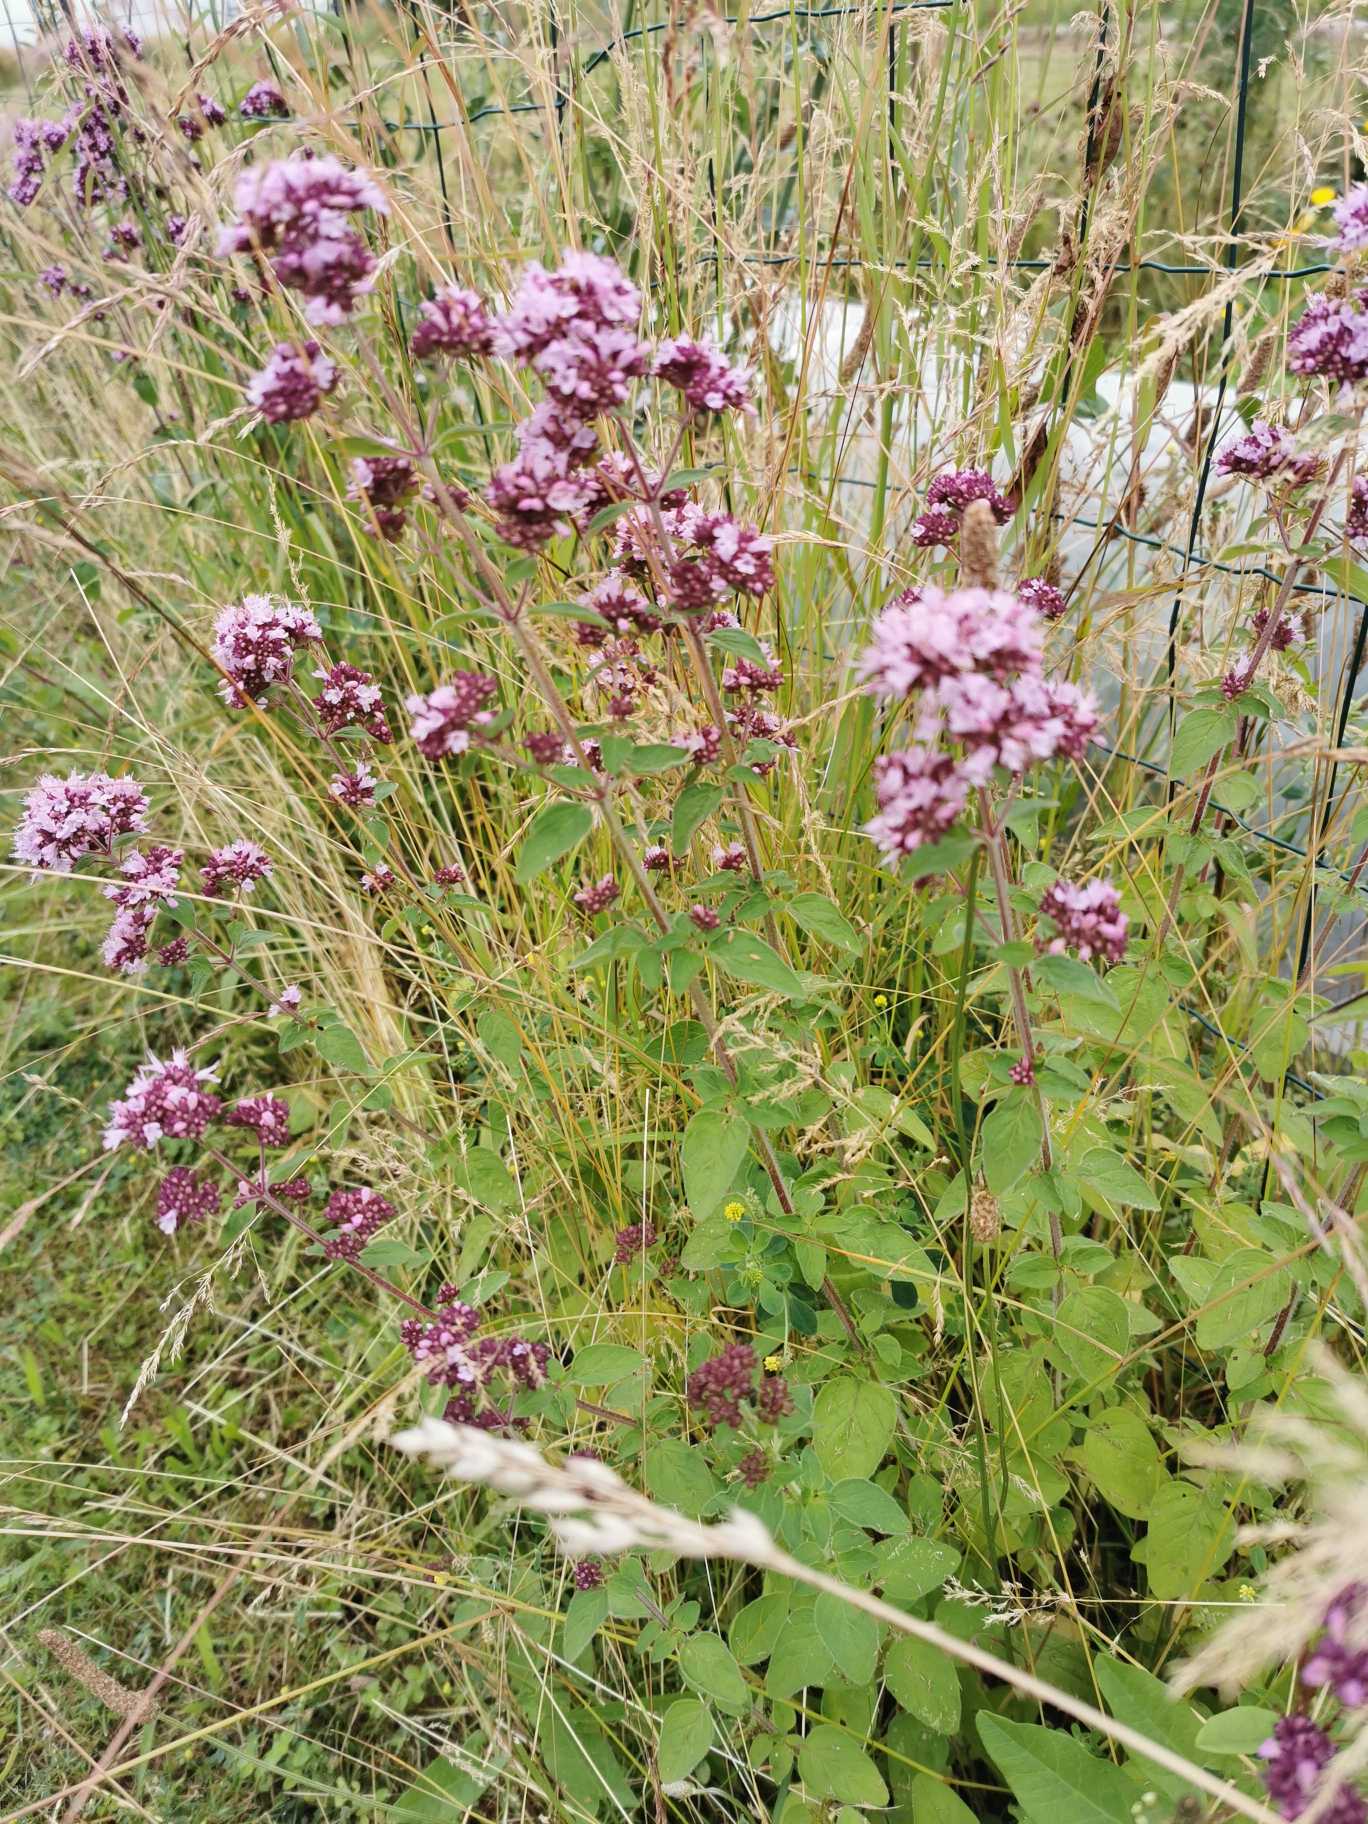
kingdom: Plantae
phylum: Tracheophyta
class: Magnoliopsida
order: Lamiales
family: Lamiaceae
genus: Origanum
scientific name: Origanum vulgare
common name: Merian
